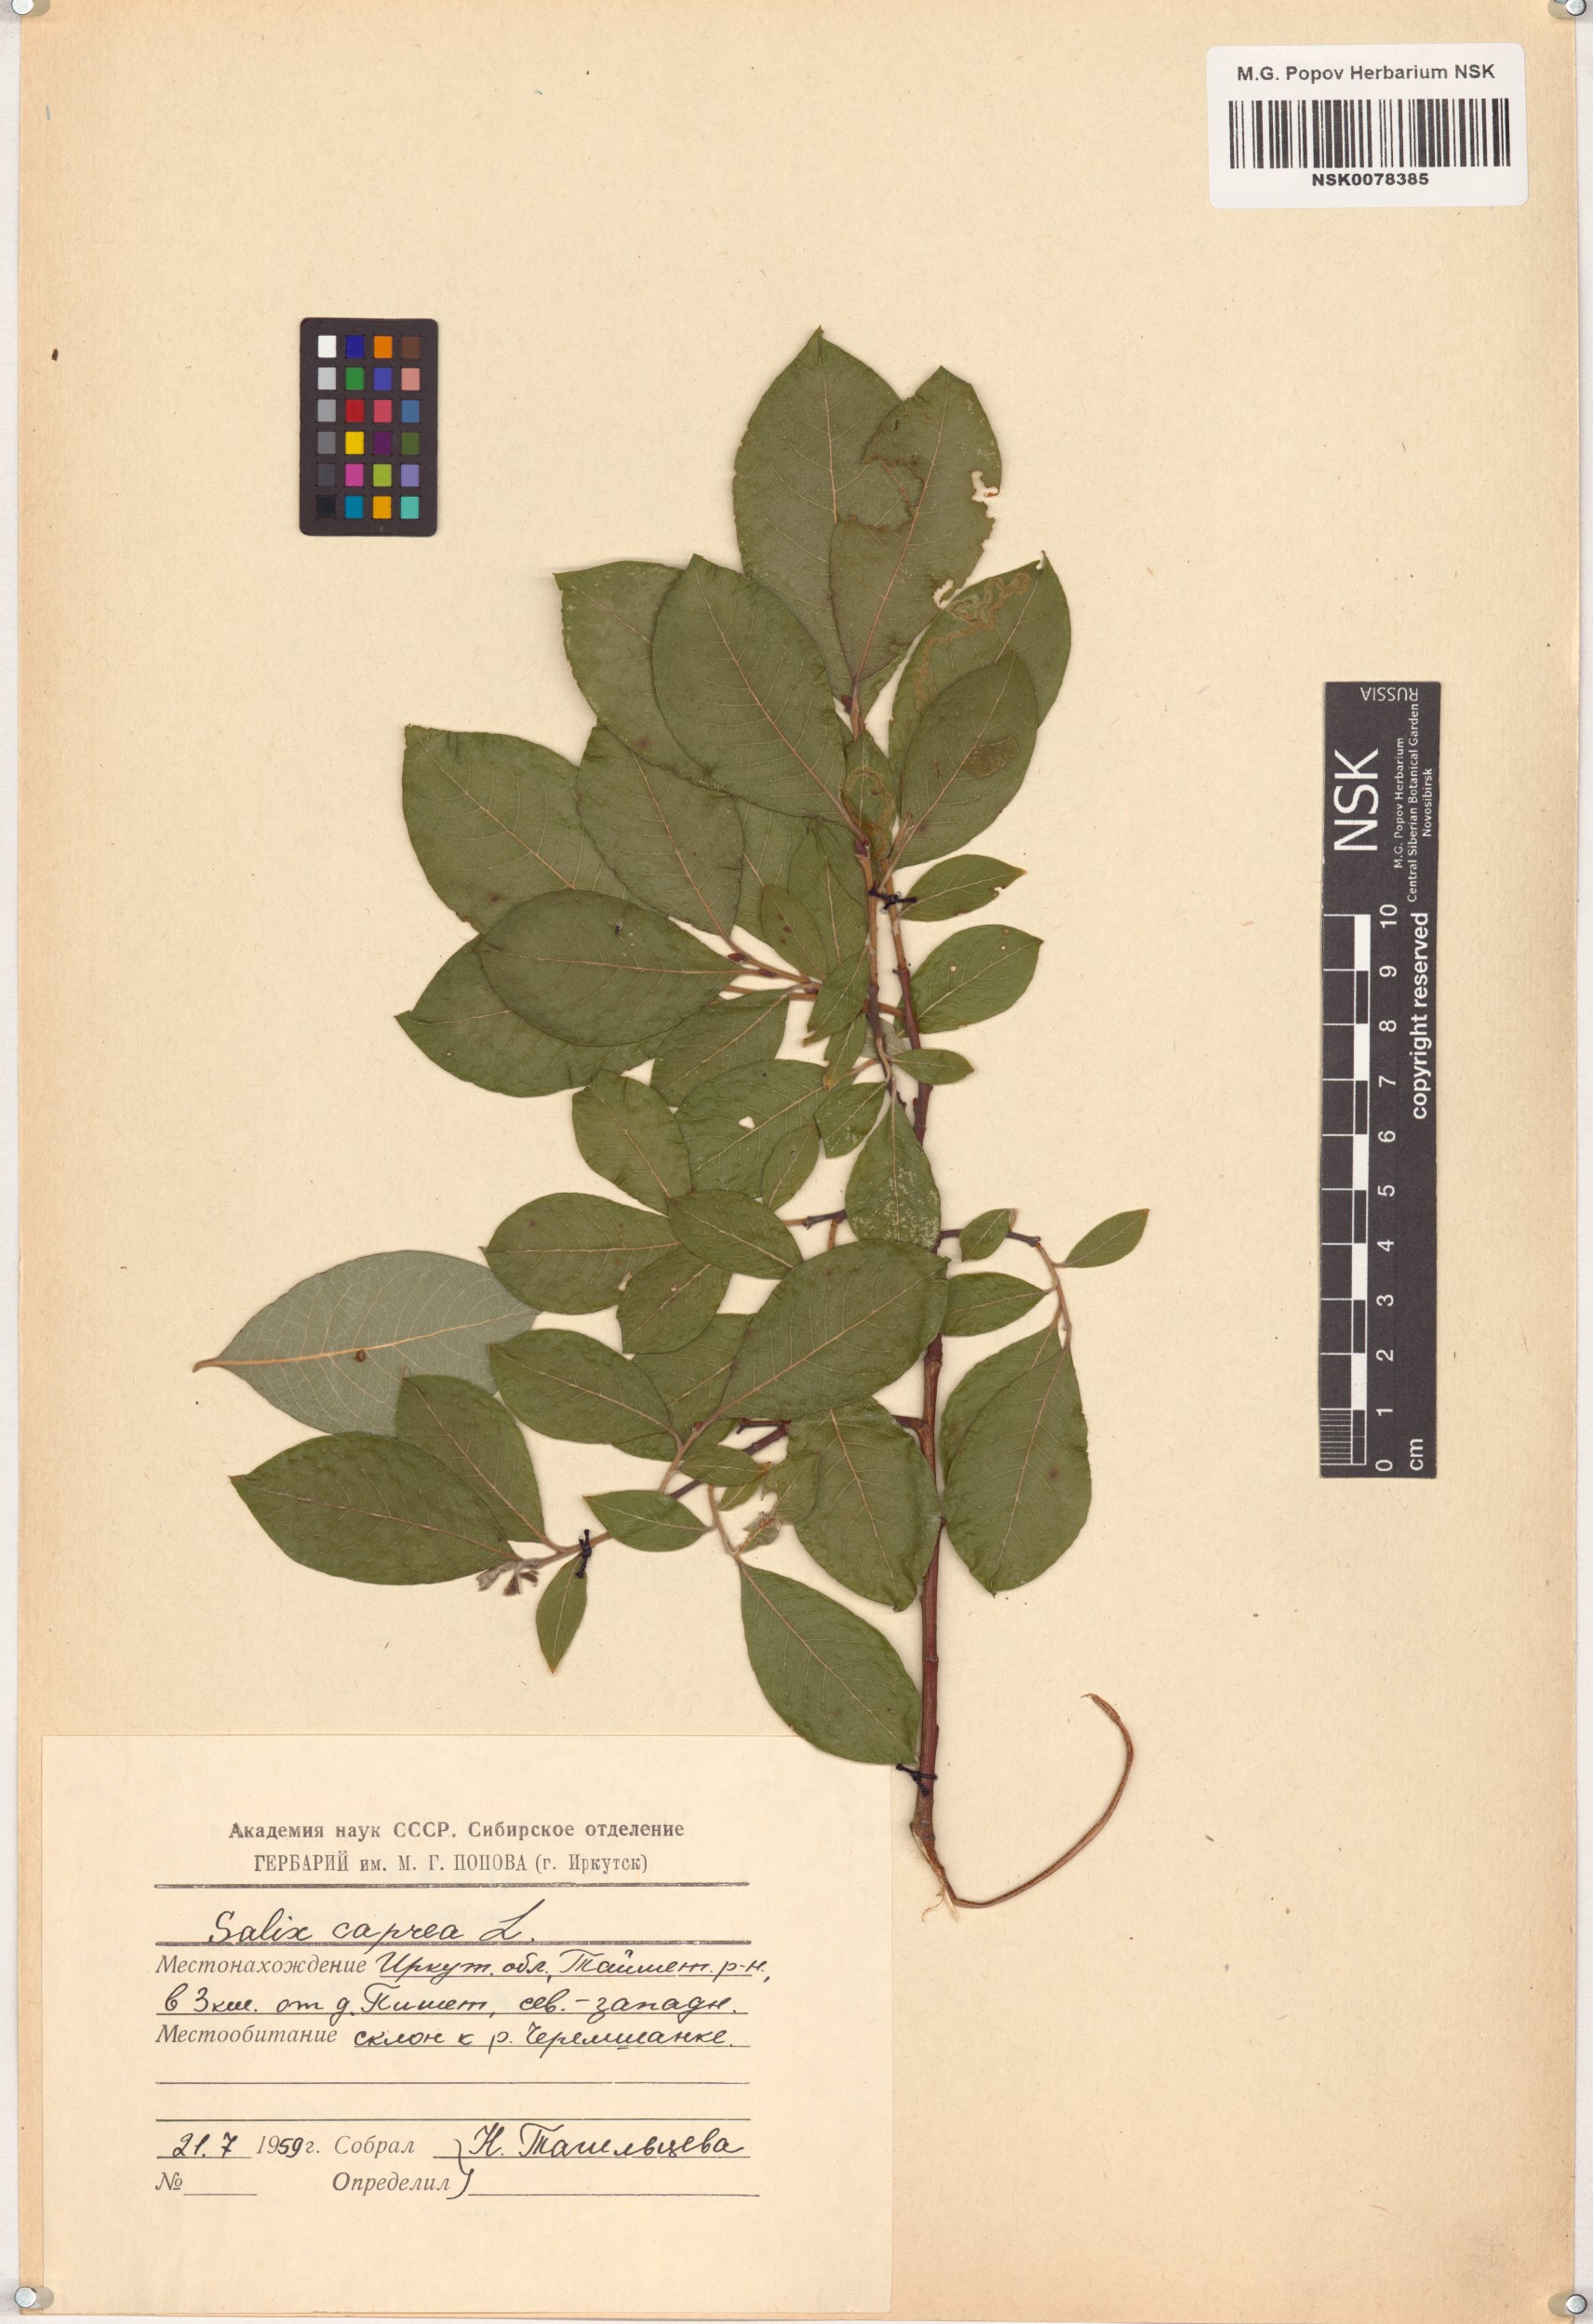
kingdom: Plantae
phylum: Tracheophyta
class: Magnoliopsida
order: Malpighiales
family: Salicaceae
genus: Salix
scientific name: Salix caprea
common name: Goat willow
